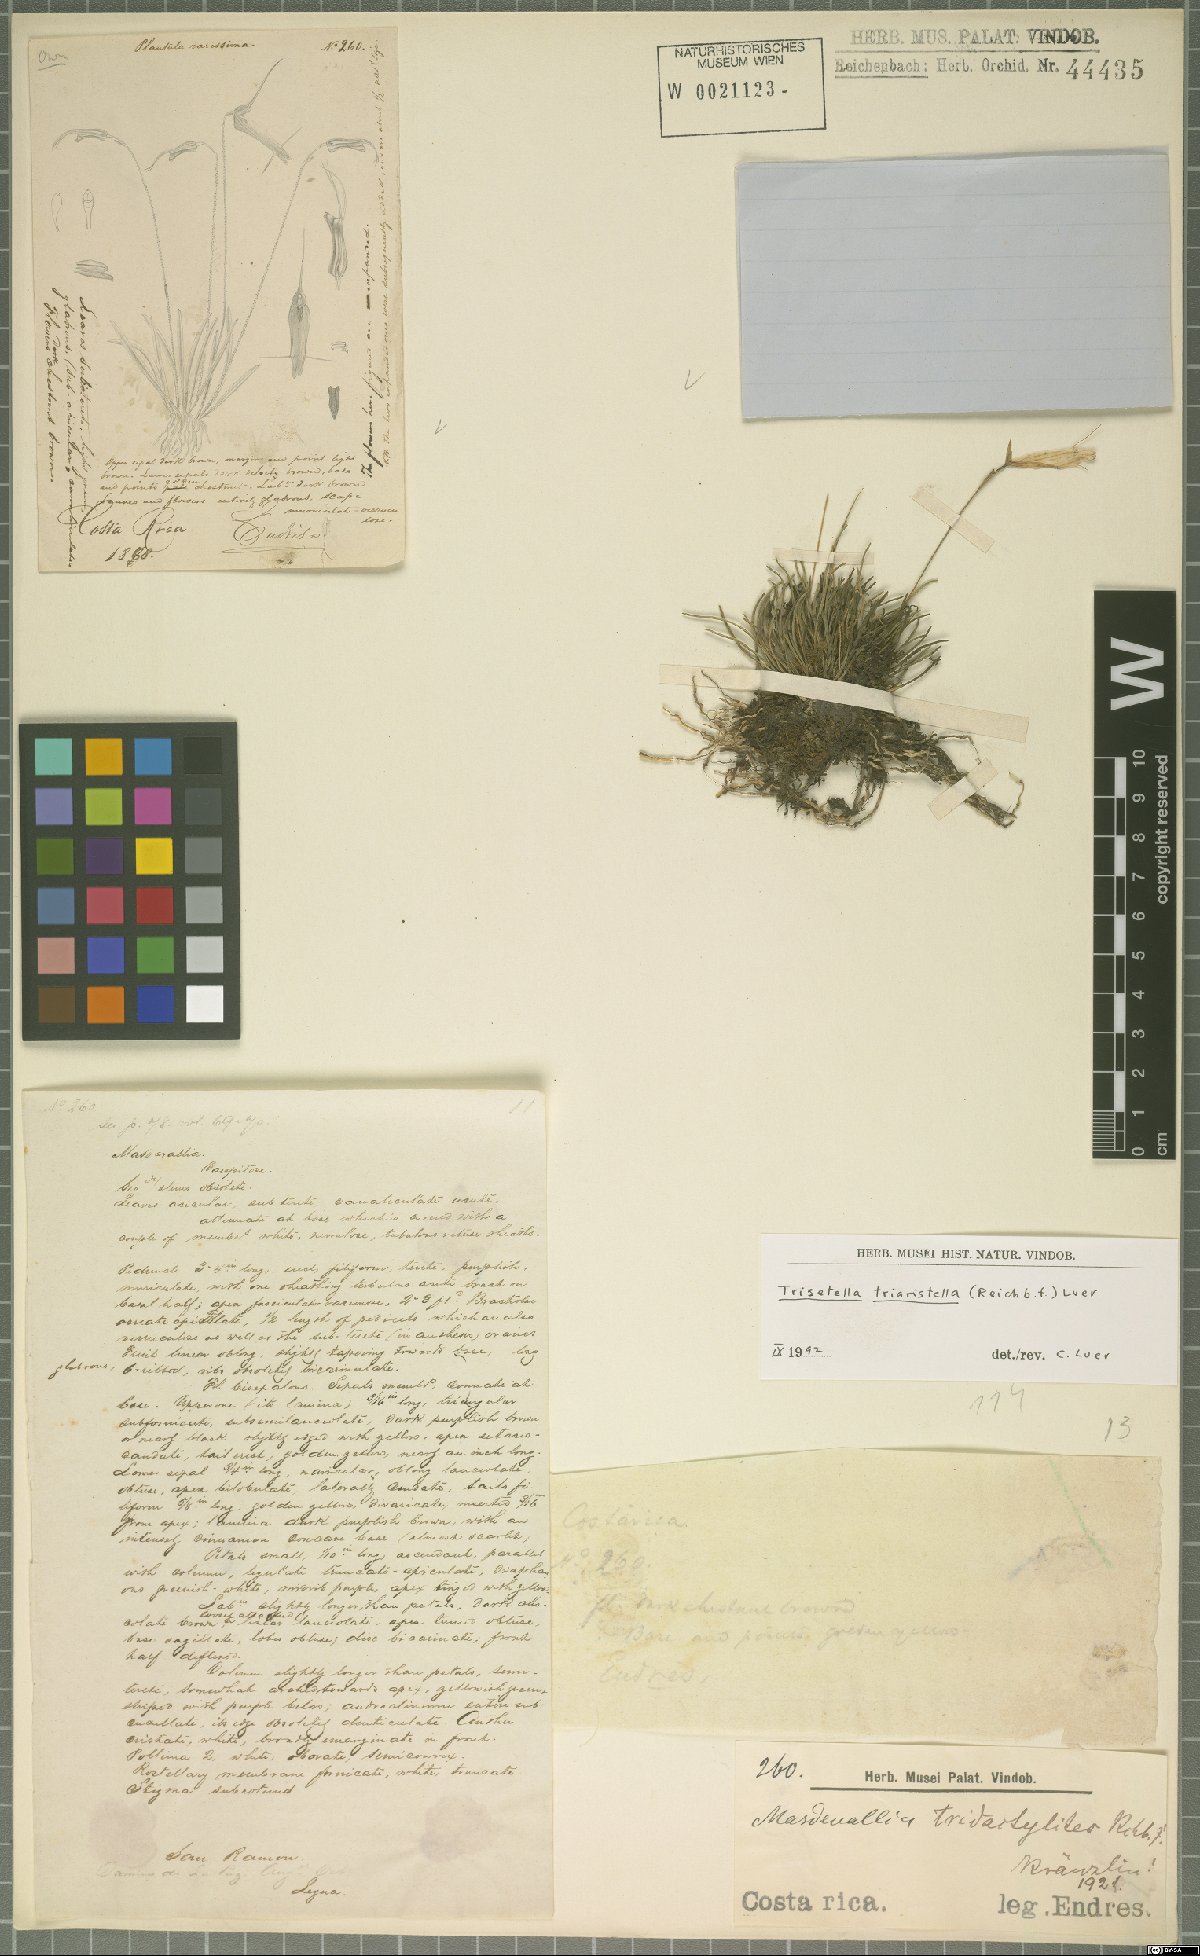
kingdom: Plantae
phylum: Tracheophyta
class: Liliopsida
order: Asparagales
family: Orchidaceae
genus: Trisetella
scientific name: Trisetella triaristella
